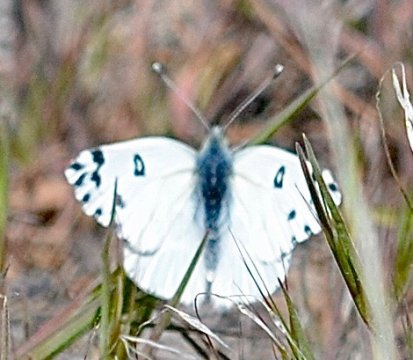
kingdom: Animalia
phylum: Arthropoda
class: Insecta
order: Lepidoptera
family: Pieridae
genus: Pontia
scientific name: Pontia beckerii
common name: Becker's White
